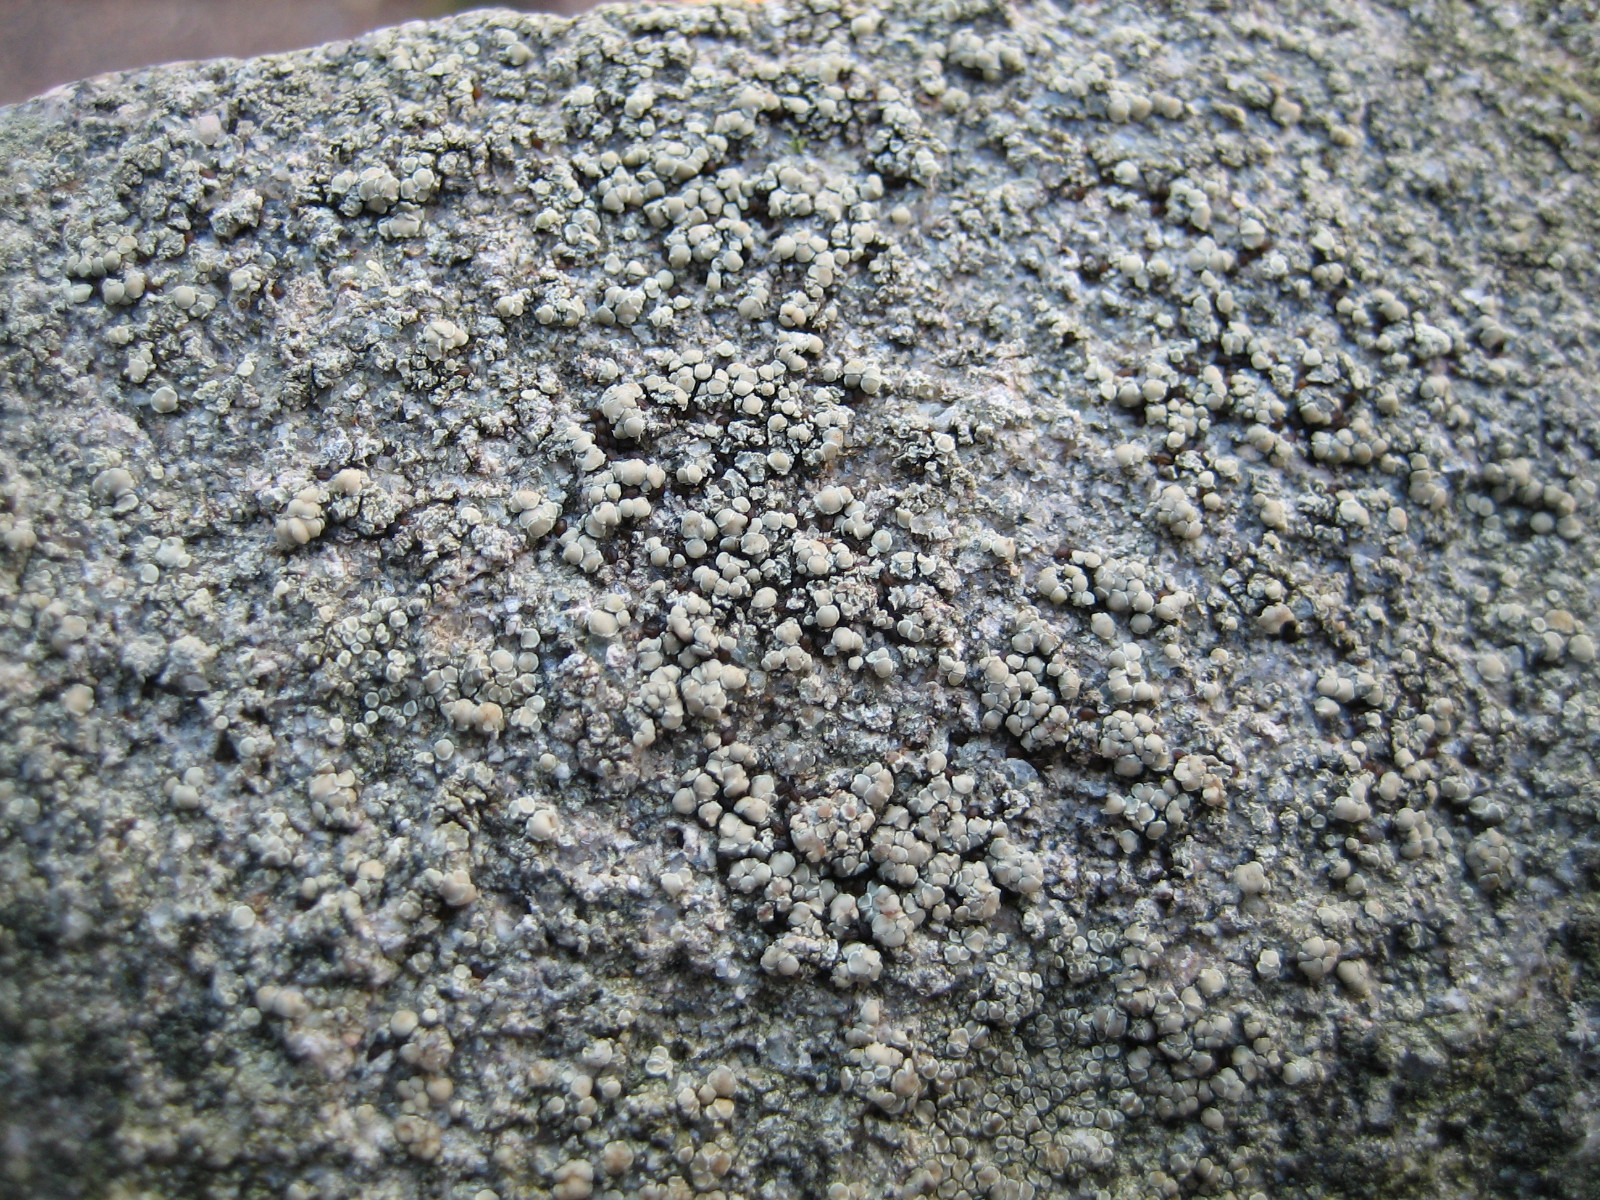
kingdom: Fungi
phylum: Ascomycota
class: Lecanoromycetes
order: Lecanorales
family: Lecanoraceae
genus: Lecanora
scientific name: Lecanora polytropa
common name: bleggrøn kantskivelav
